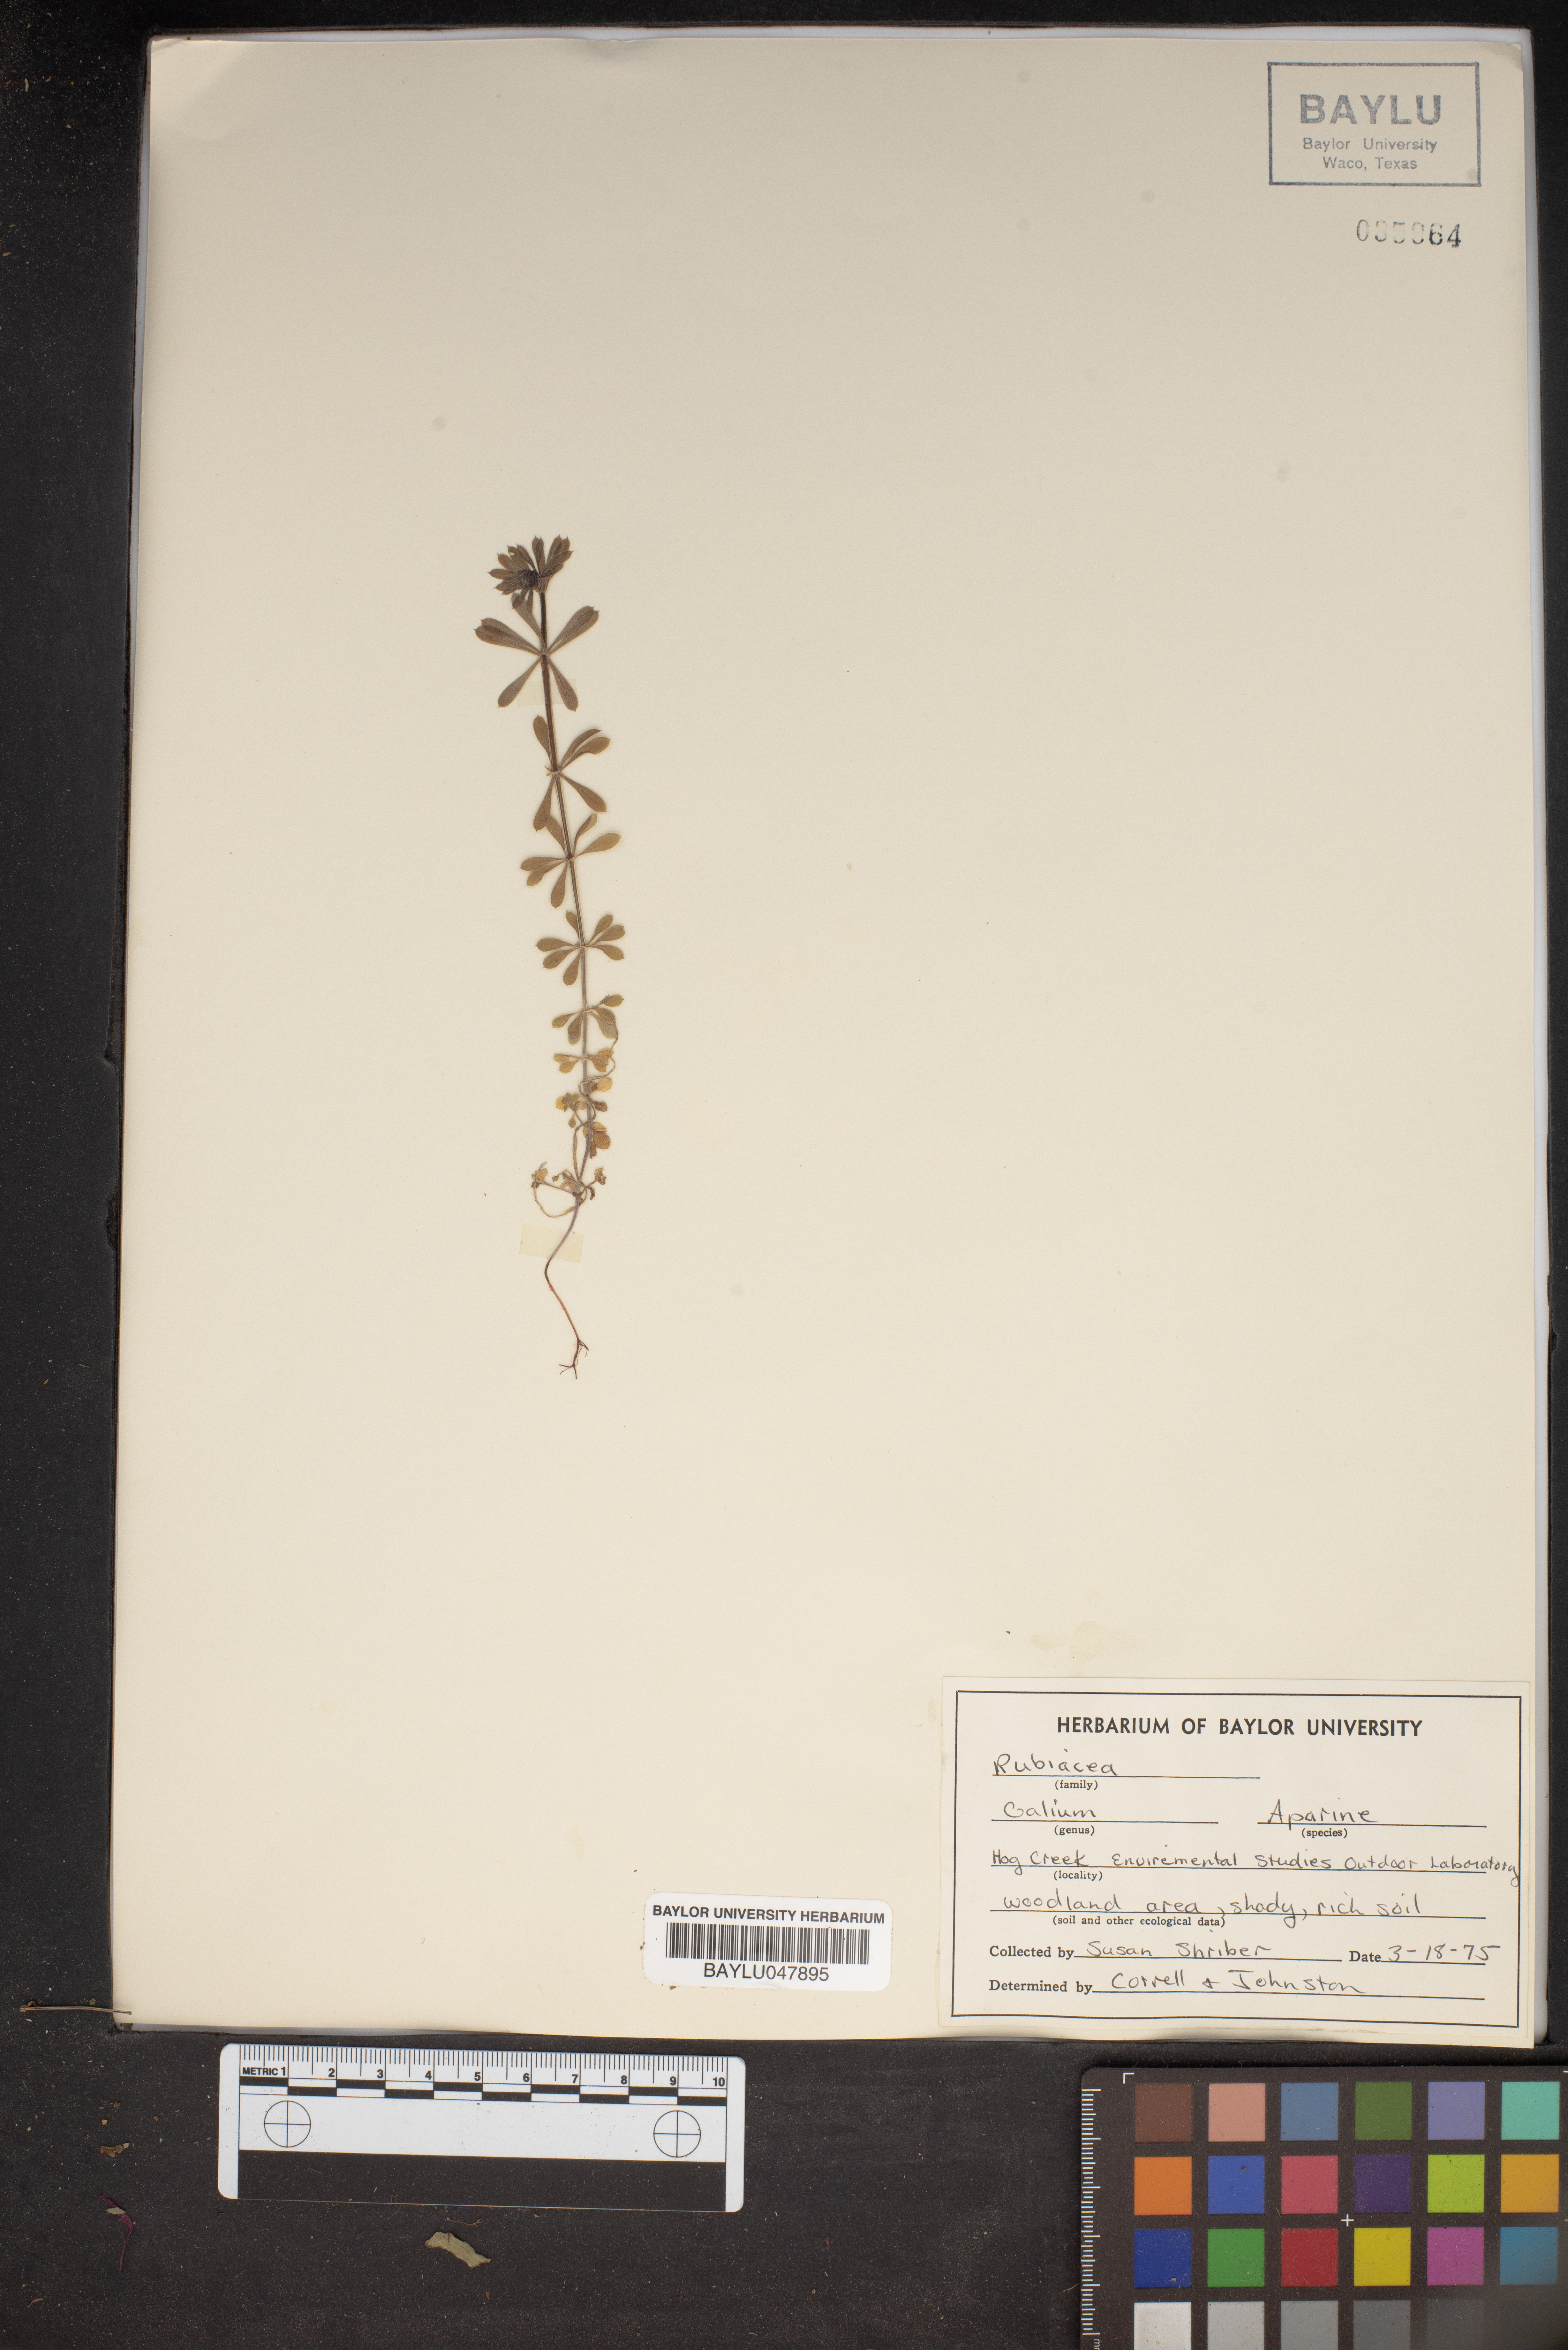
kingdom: Plantae
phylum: Tracheophyta
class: Magnoliopsida
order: Gentianales
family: Rubiaceae
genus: Galium
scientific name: Galium aparine
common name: Cleavers
